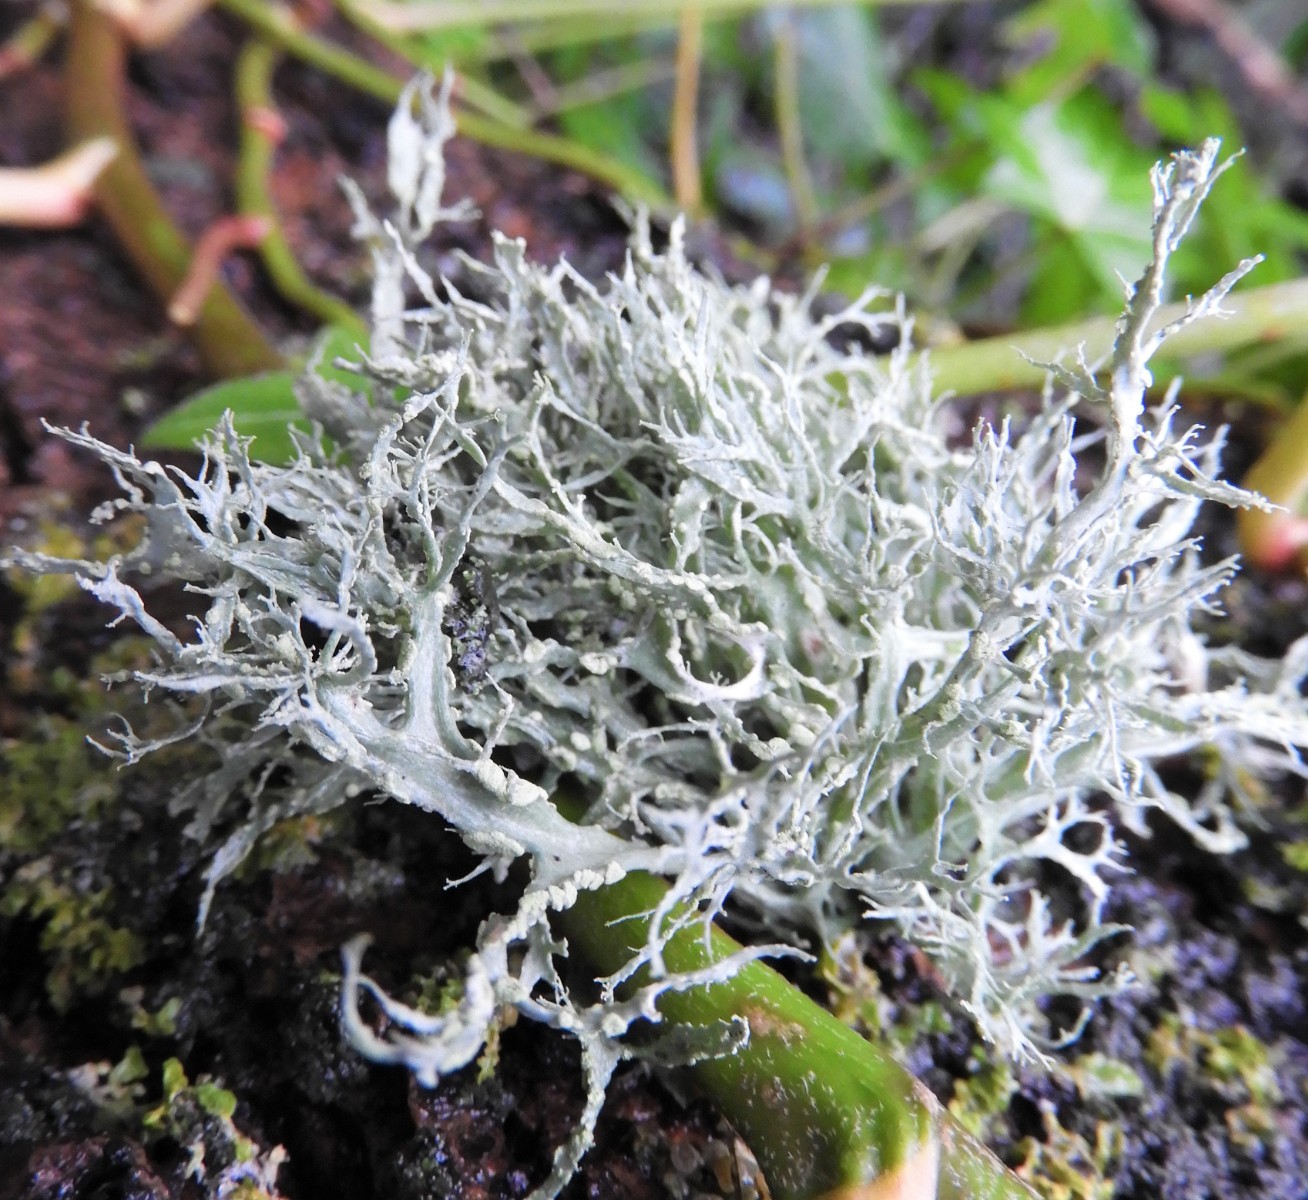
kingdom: Fungi
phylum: Ascomycota
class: Lecanoromycetes
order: Lecanorales
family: Ramalinaceae
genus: Ramalina
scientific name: Ramalina farinacea
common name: melet grenlav
